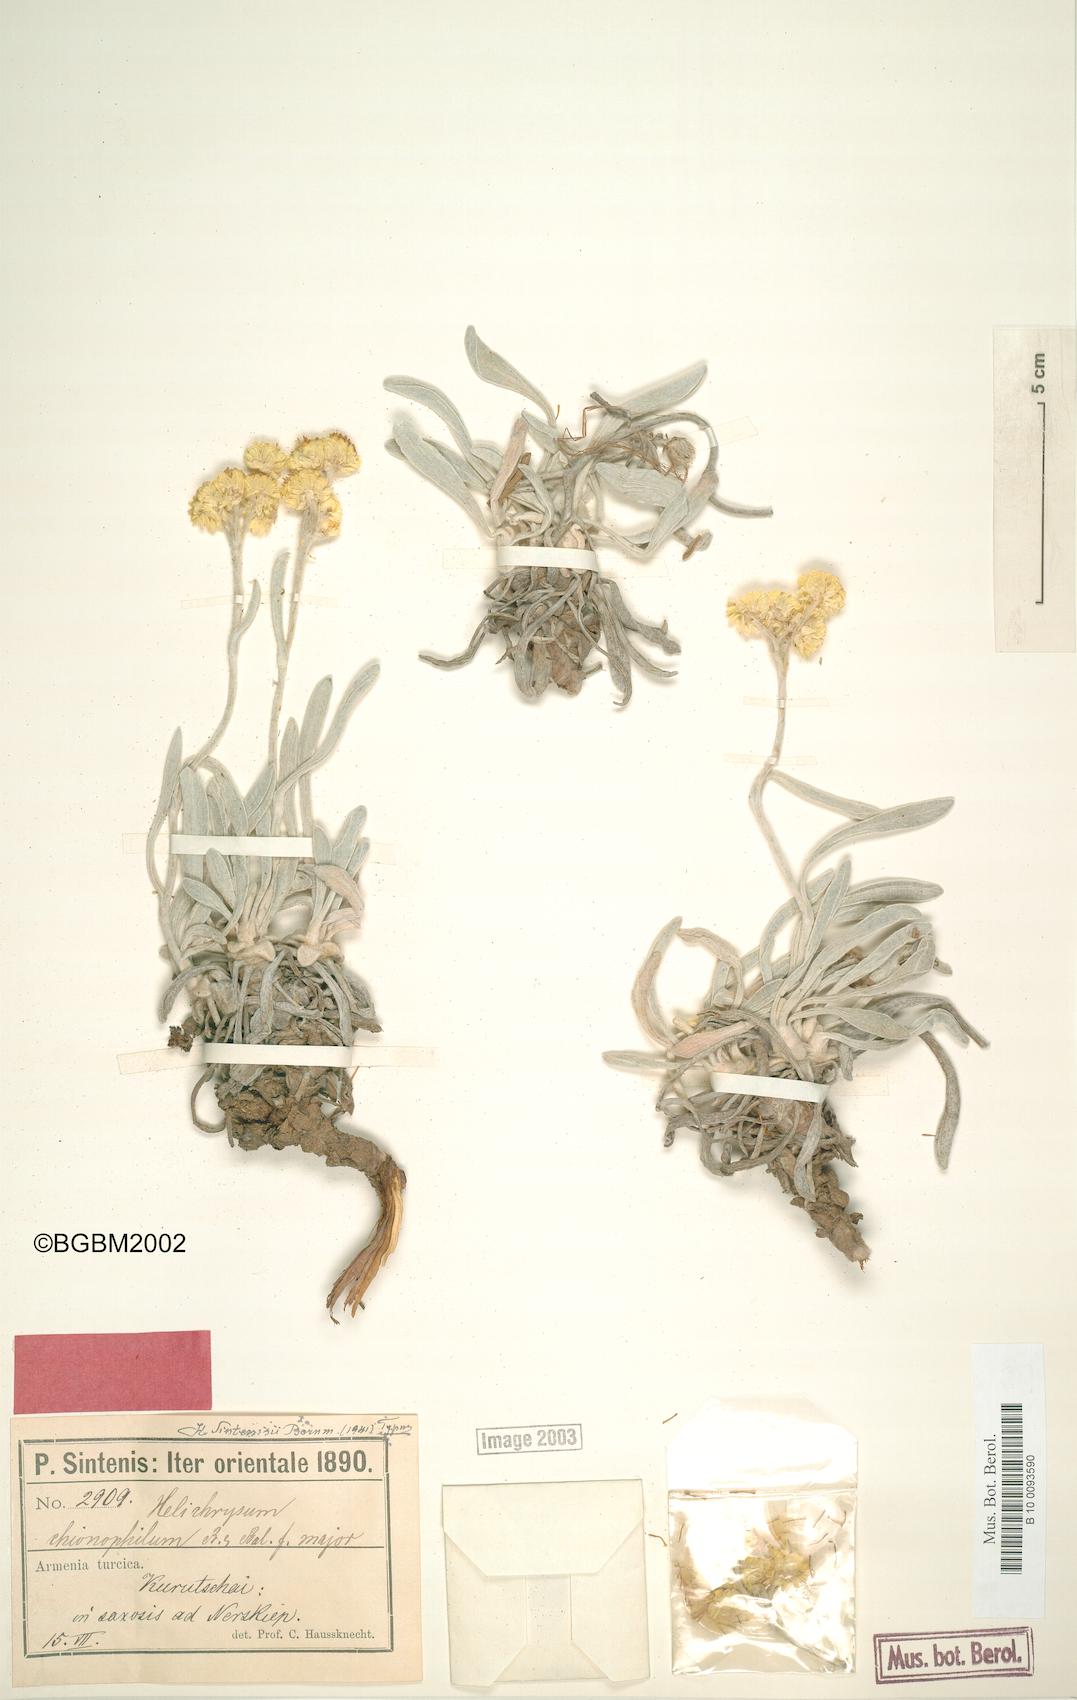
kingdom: Plantae
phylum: Tracheophyta
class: Magnoliopsida
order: Asterales
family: Asteraceae
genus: Helichrysum
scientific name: Helichrysum sintenisii
